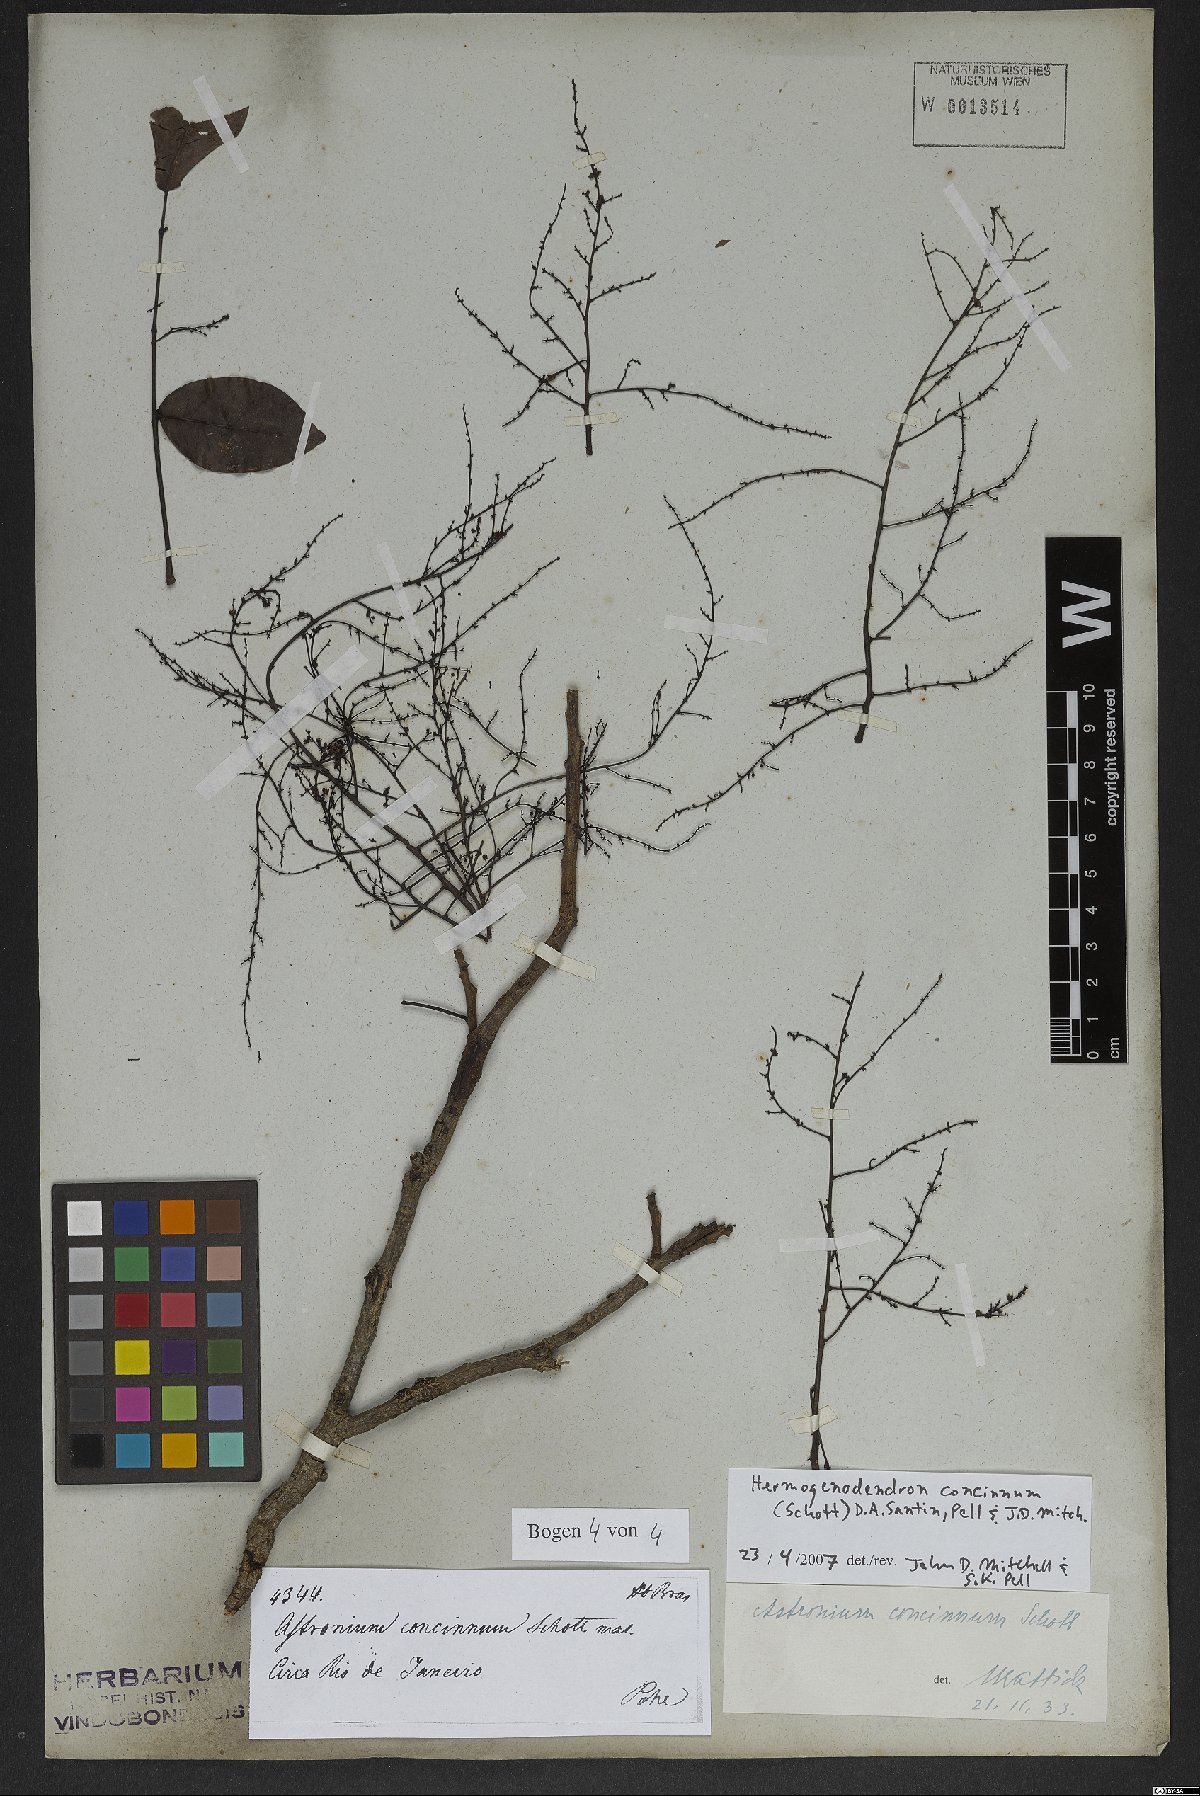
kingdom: Plantae
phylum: Tracheophyta
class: Magnoliopsida
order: Sapindales
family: Anacardiaceae
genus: Myracrodruon
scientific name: Myracrodruon urundeuva
